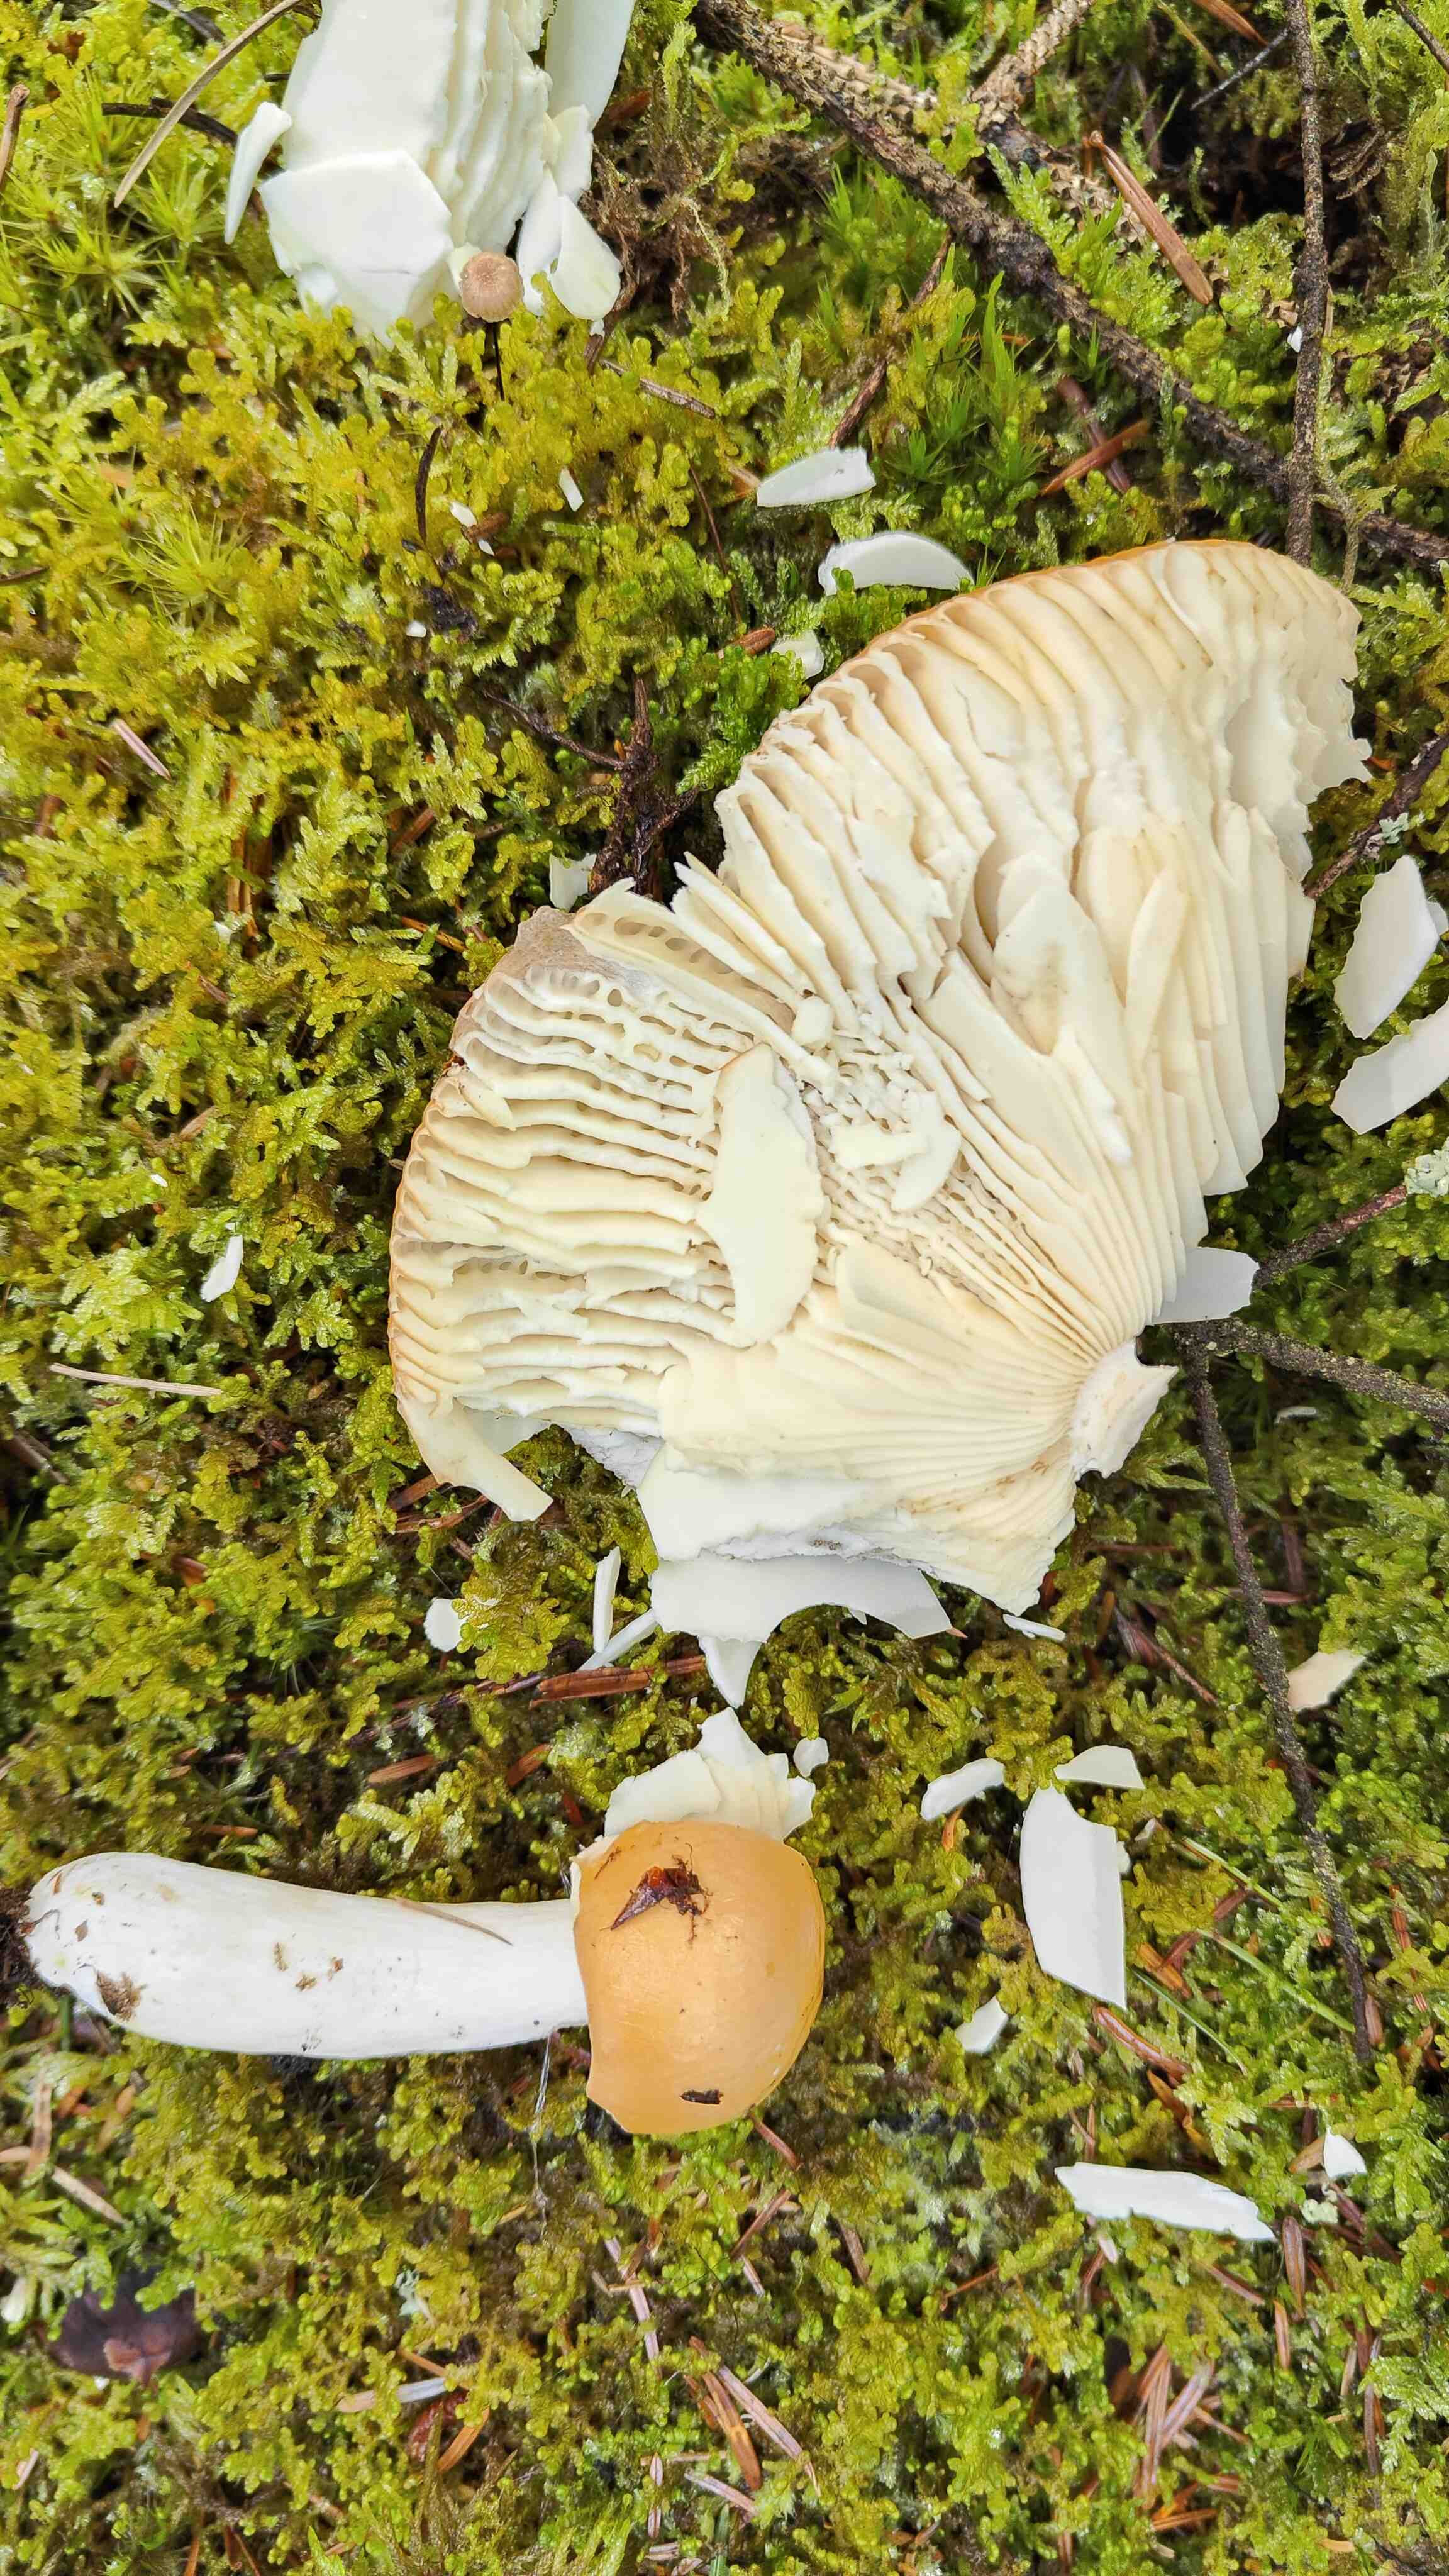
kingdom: Fungi
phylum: Basidiomycota
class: Agaricomycetes
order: Russulales
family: Russulaceae
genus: Russula
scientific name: Russula decolorans
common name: afblegende skørhat
